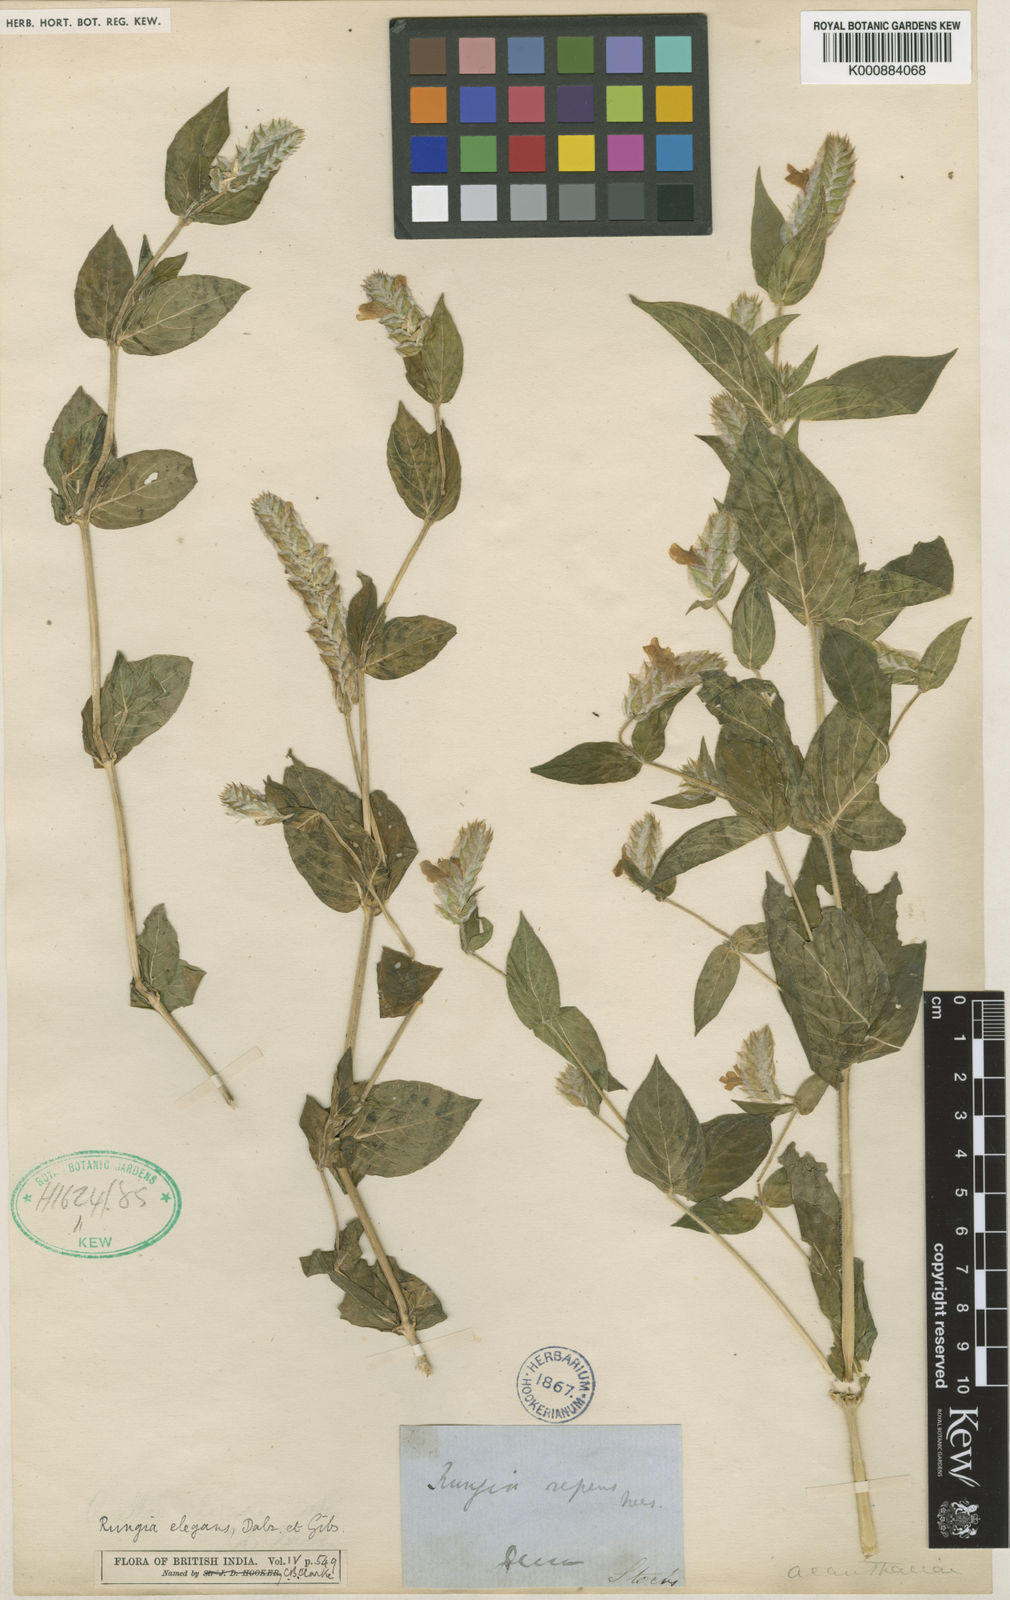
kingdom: Plantae
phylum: Tracheophyta
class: Magnoliopsida
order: Lamiales
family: Acanthaceae
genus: Justicia
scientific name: Justicia
